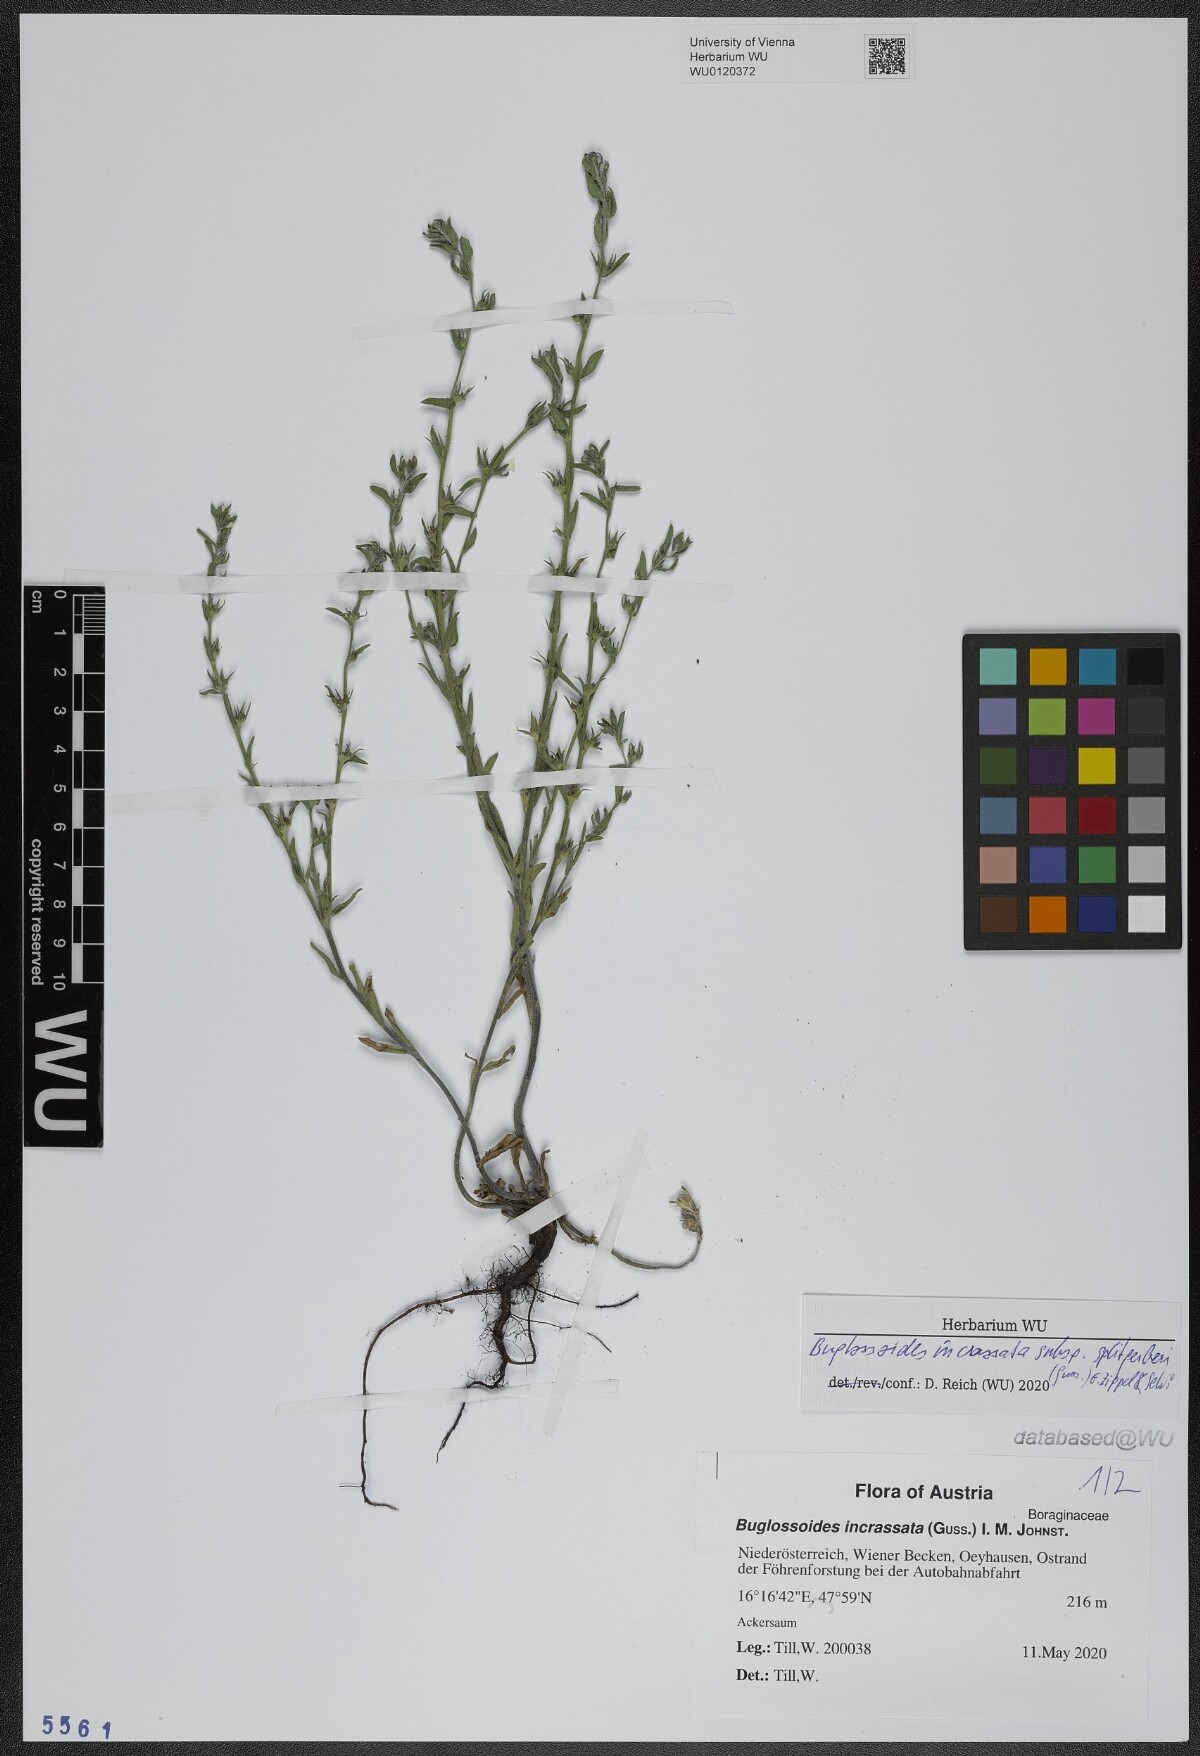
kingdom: Plantae
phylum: Tracheophyta
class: Magnoliopsida
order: Boraginales
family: Boraginaceae
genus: Buglossoides
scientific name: Buglossoides incrassata
